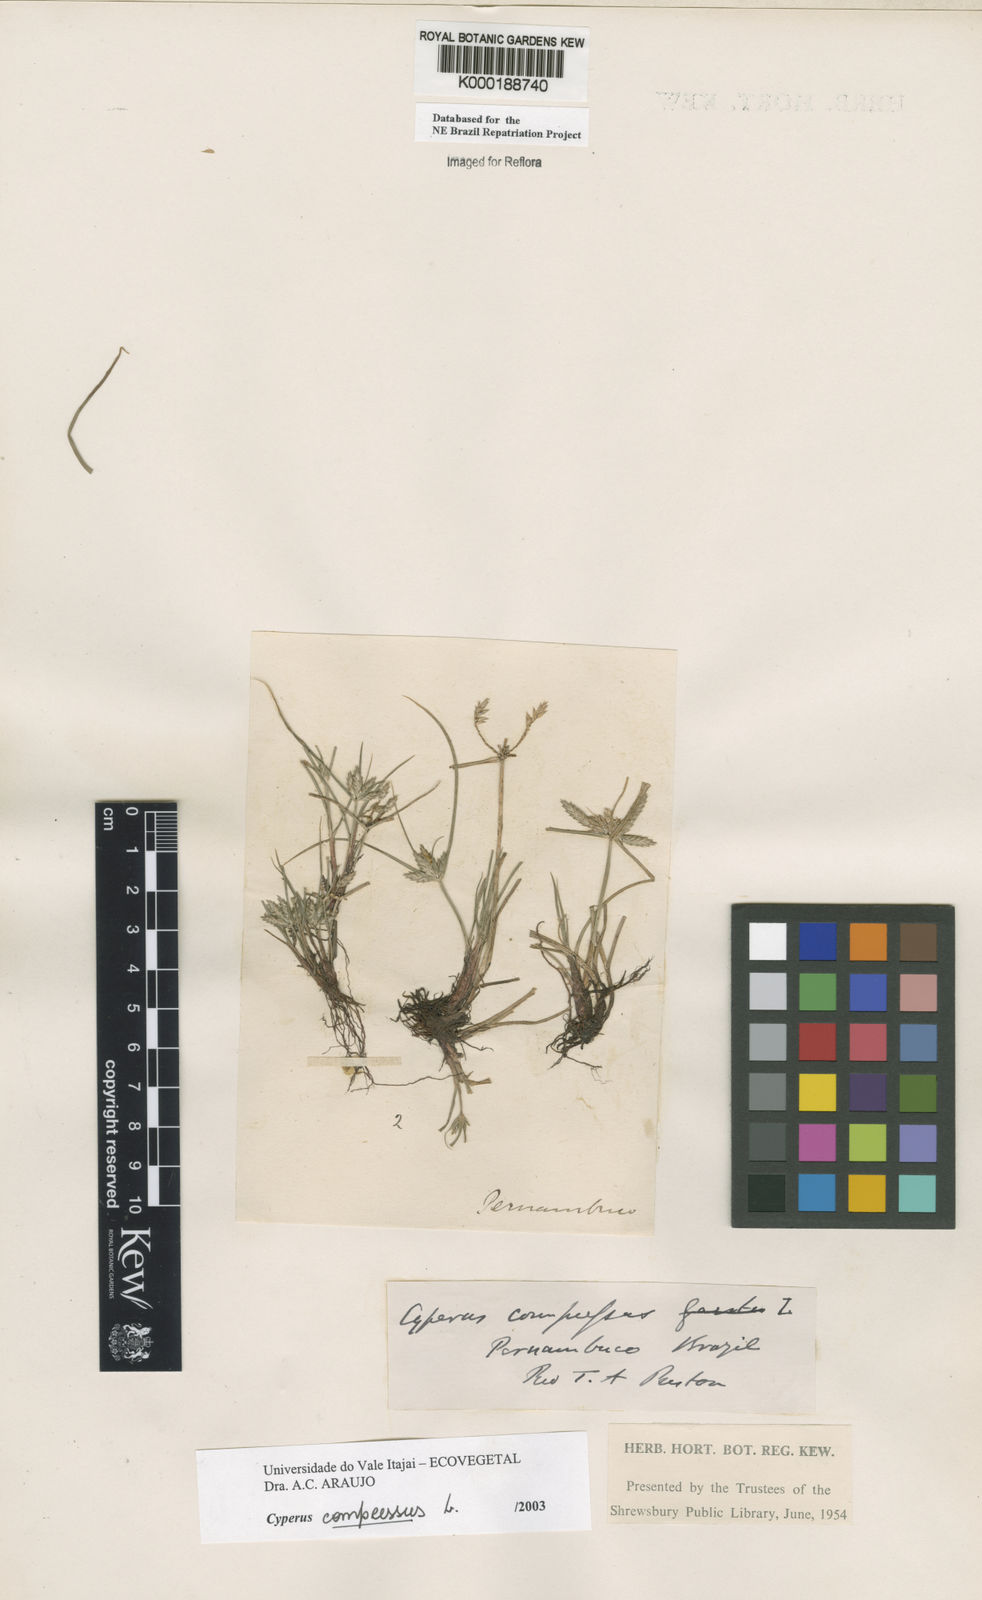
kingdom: Plantae
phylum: Tracheophyta
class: Liliopsida
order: Poales
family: Cyperaceae
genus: Cyperus
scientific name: Cyperus compressus
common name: Poorland flatsedge
